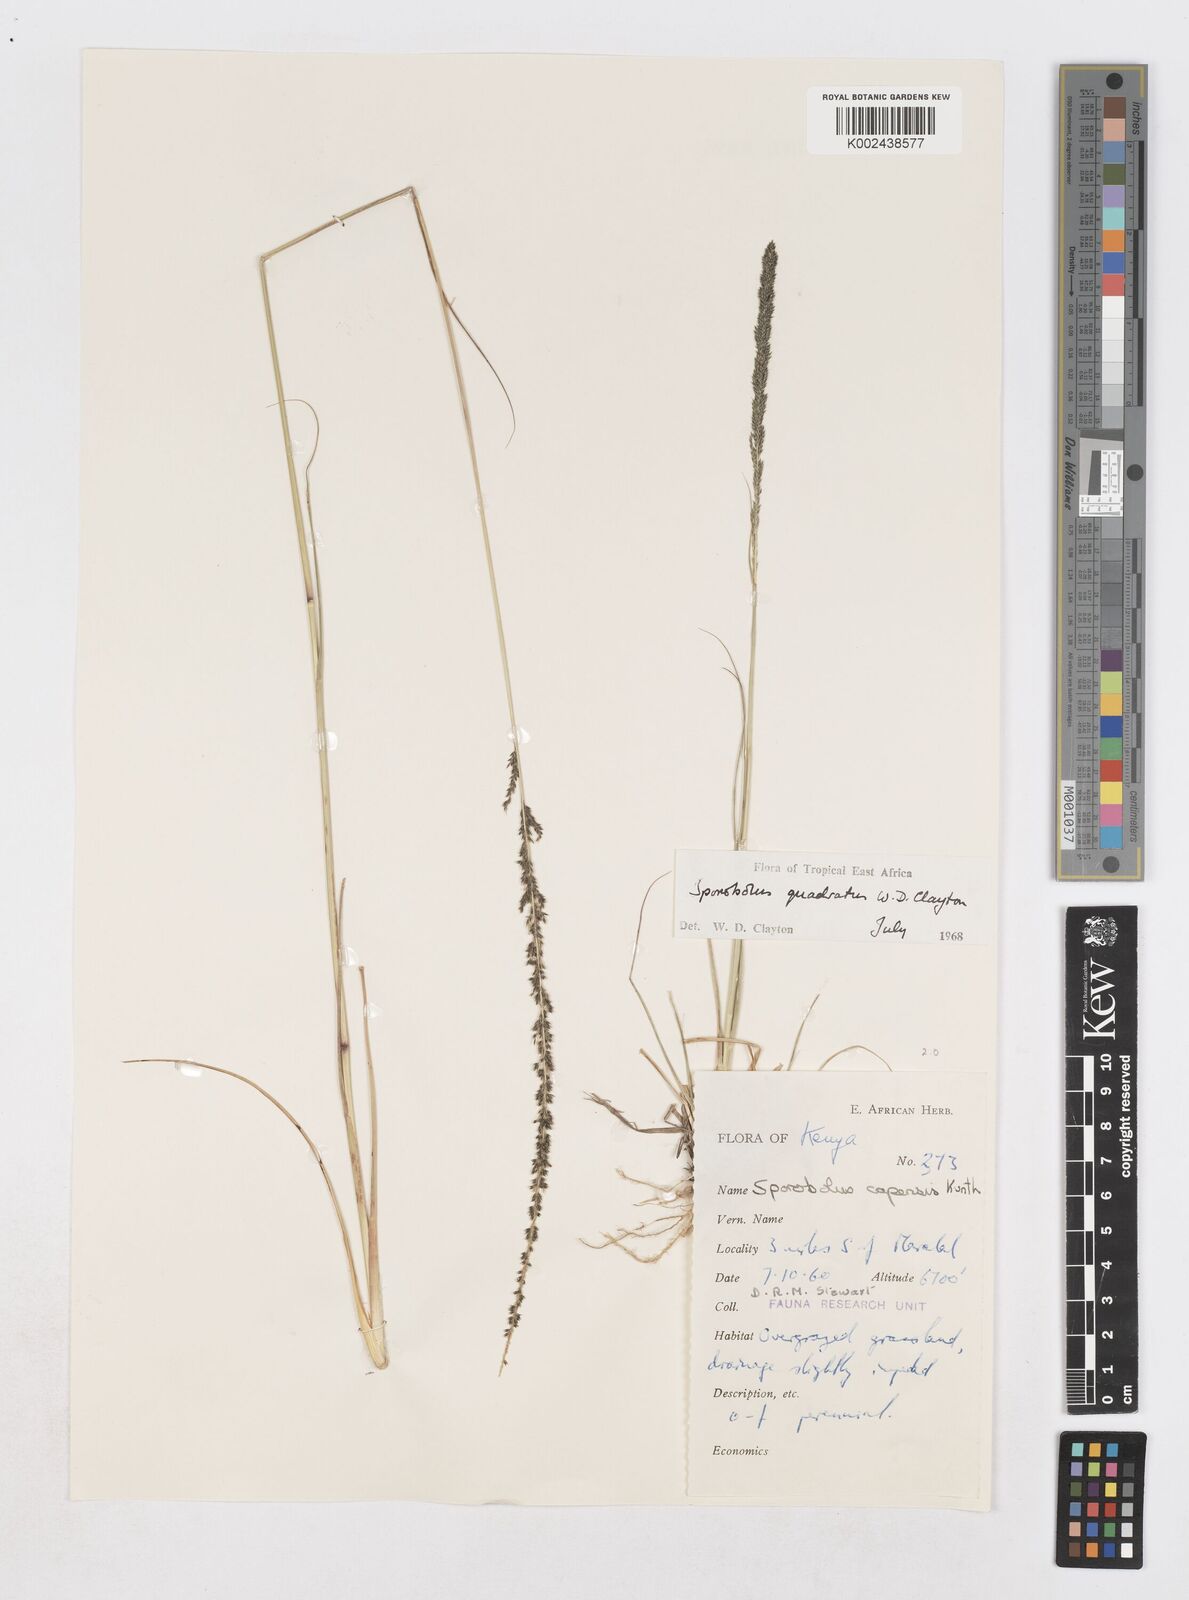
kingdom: Plantae
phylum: Tracheophyta
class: Liliopsida
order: Poales
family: Poaceae
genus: Sporobolus
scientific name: Sporobolus quadratus
